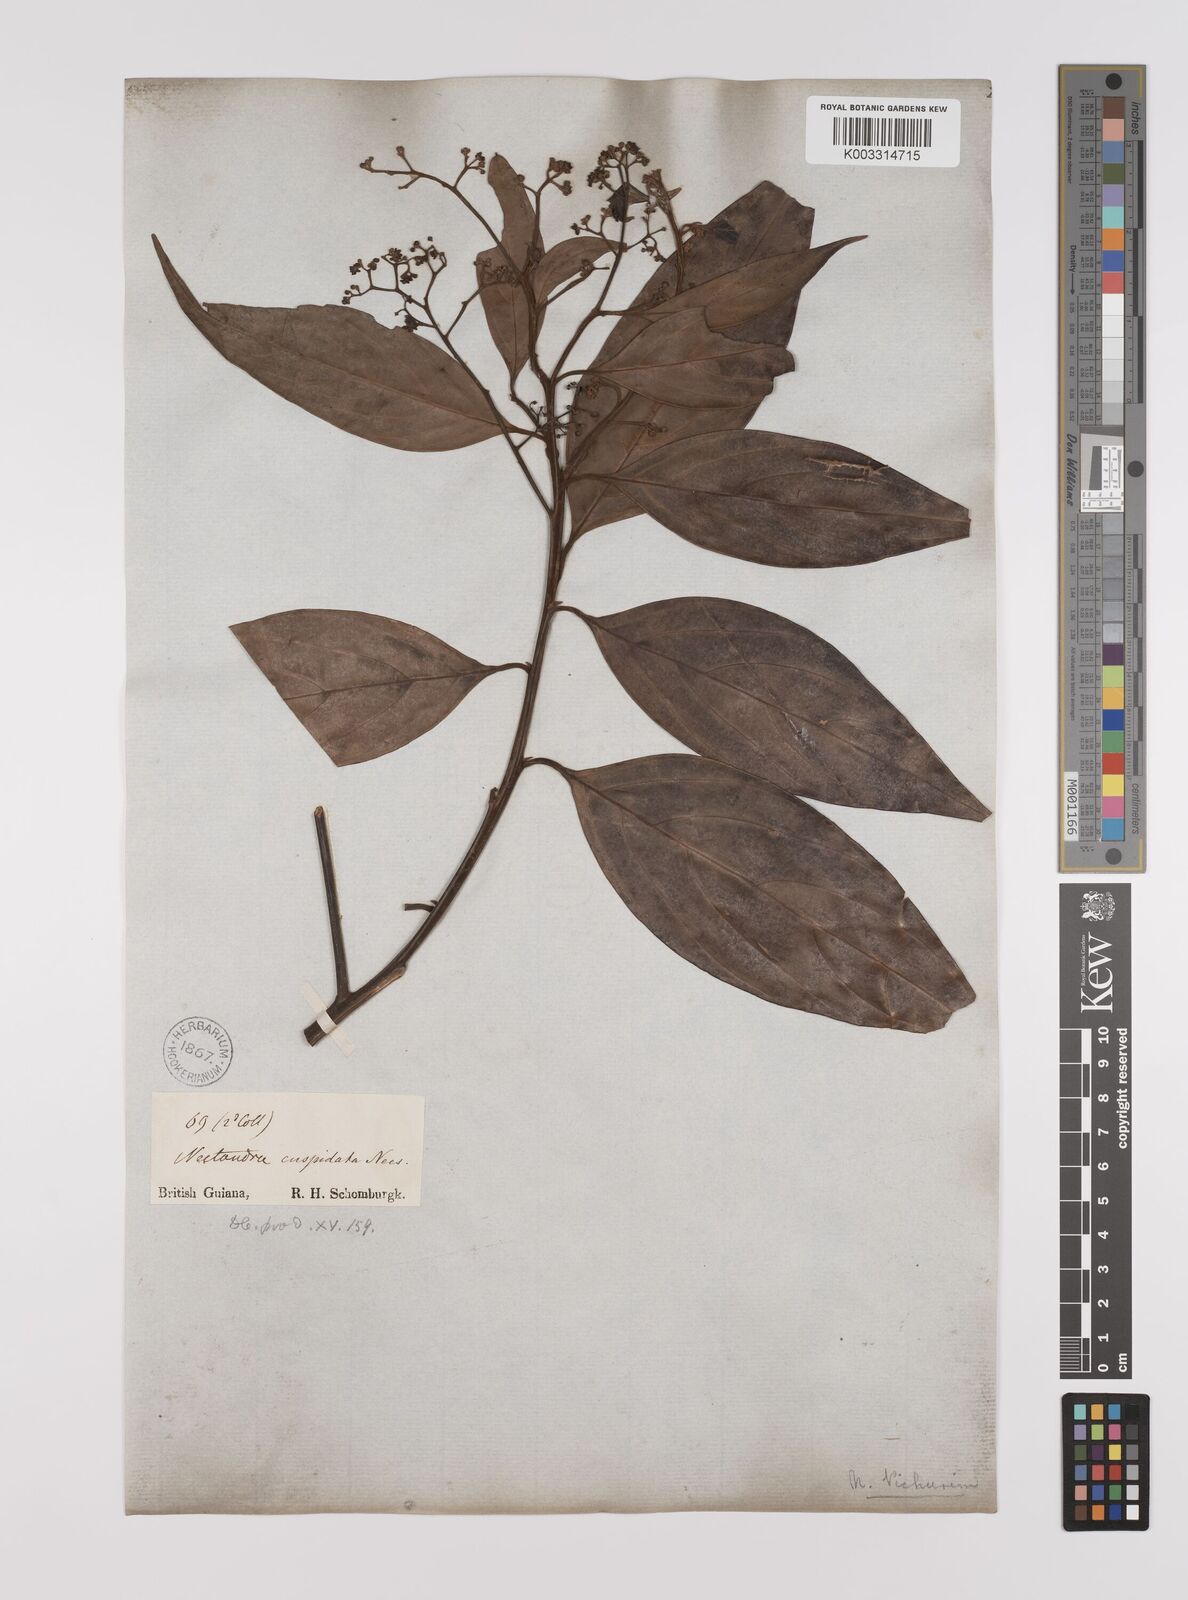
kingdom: Plantae
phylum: Tracheophyta
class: Magnoliopsida
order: Laurales
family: Lauraceae
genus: Nectandra
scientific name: Nectandra cuspidata
